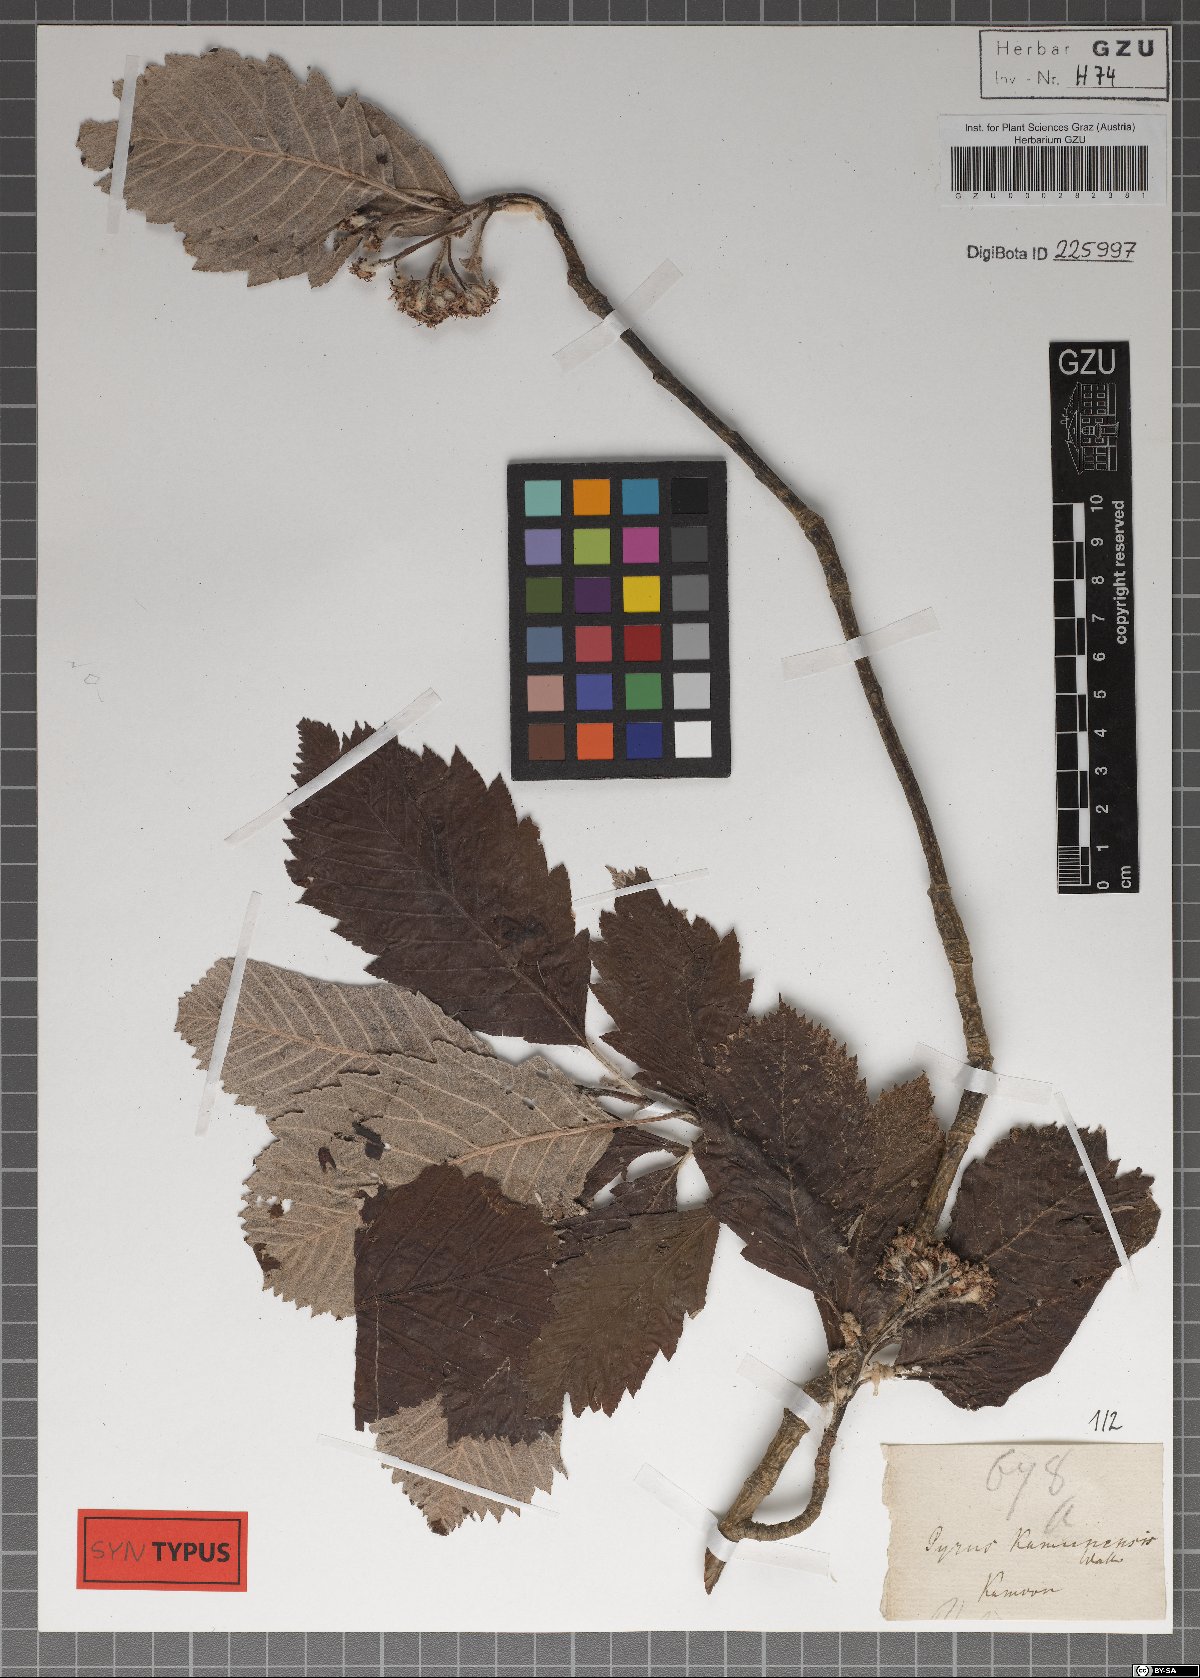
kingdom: Plantae
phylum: Tracheophyta
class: Magnoliopsida
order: Rosales
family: Rosaceae
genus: Sorbus
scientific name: Sorbus lanata
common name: Hairy rowan
